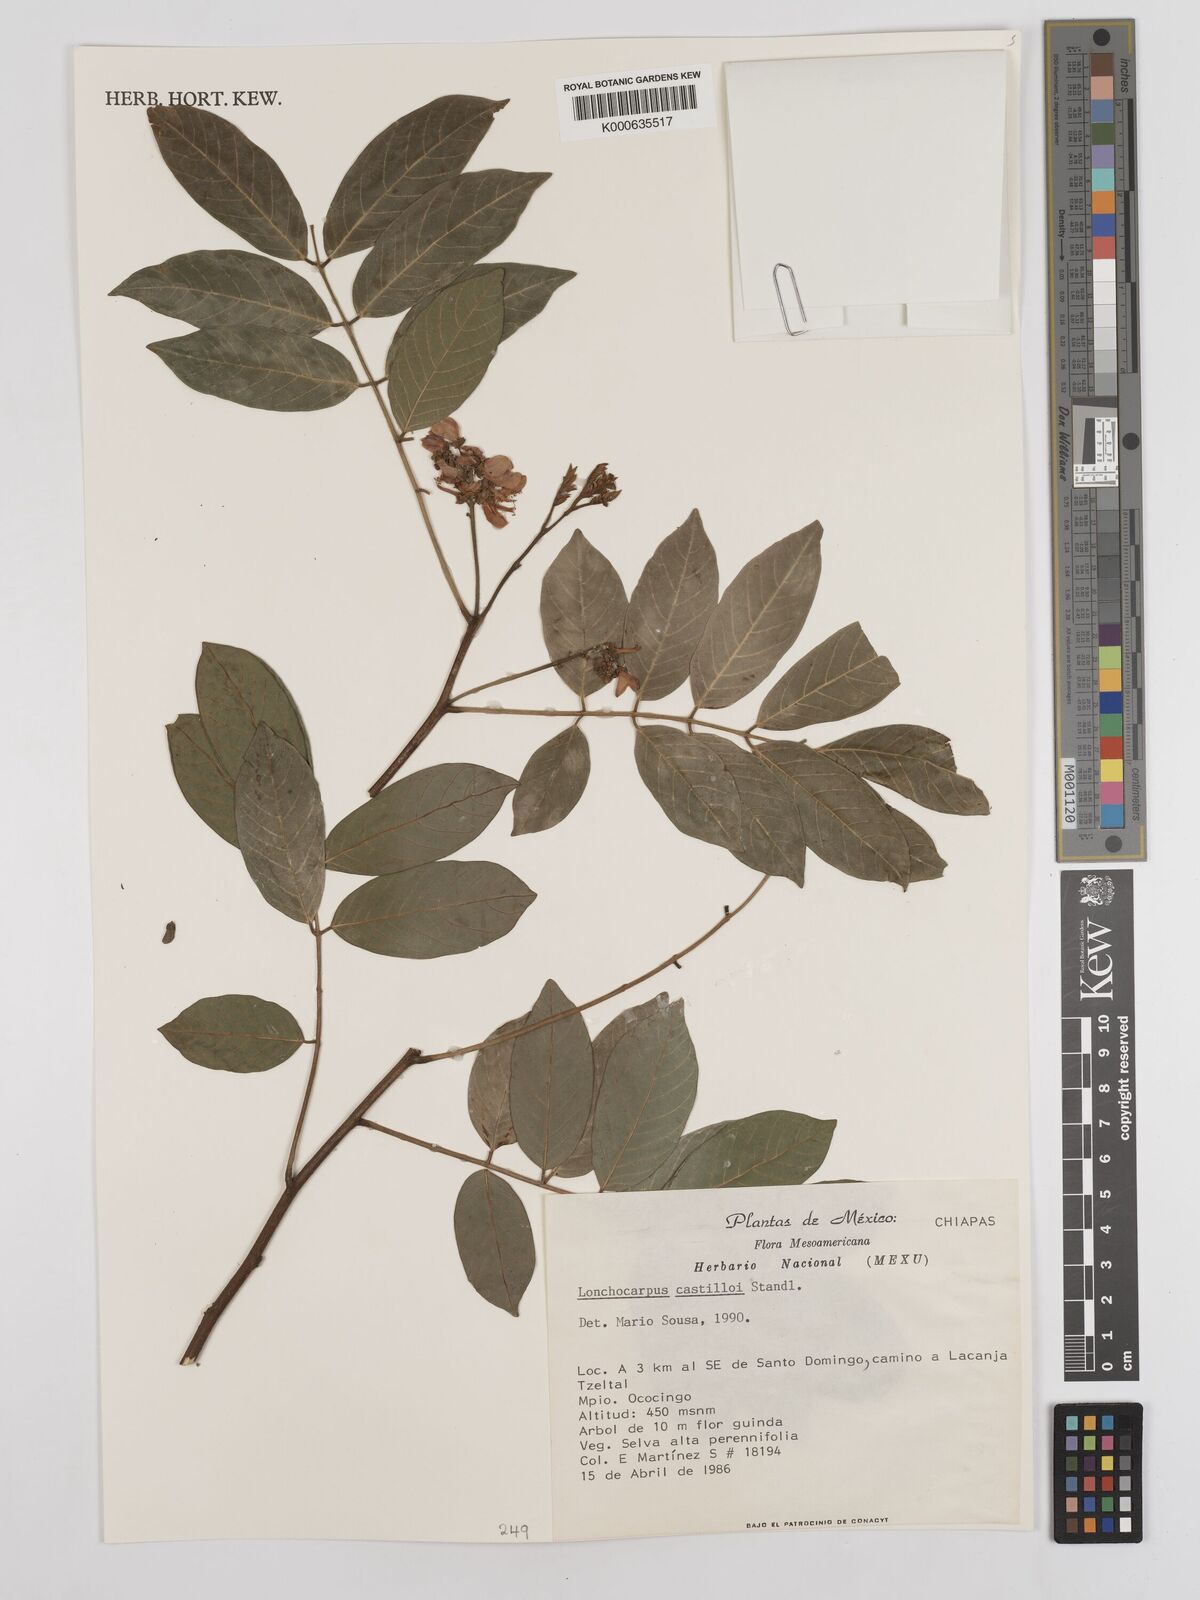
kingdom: Plantae
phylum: Tracheophyta
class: Magnoliopsida
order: Fabales
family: Fabaceae
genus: Lonchocarpus
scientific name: Lonchocarpus castilloi
